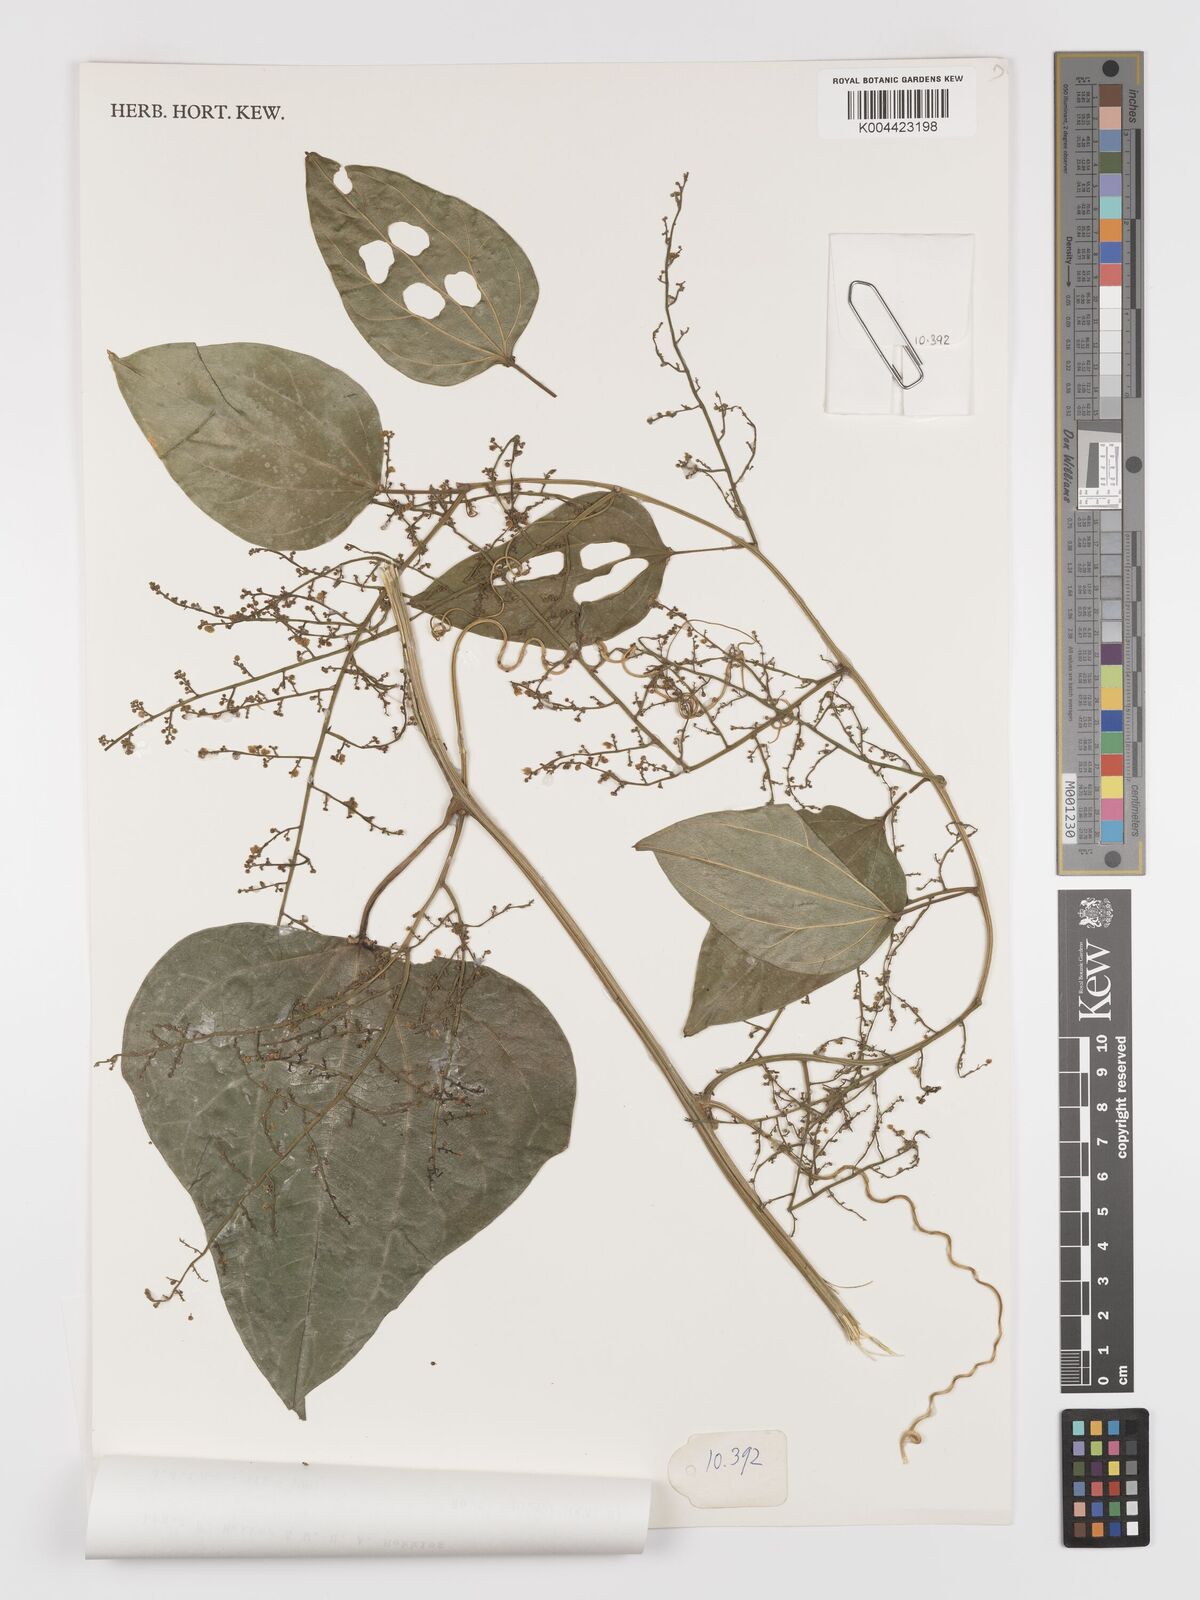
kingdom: Plantae
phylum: Tracheophyta
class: Magnoliopsida
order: Cucurbitales
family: Cucurbitaceae
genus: Fevillea
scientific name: Fevillea pergamentacea
